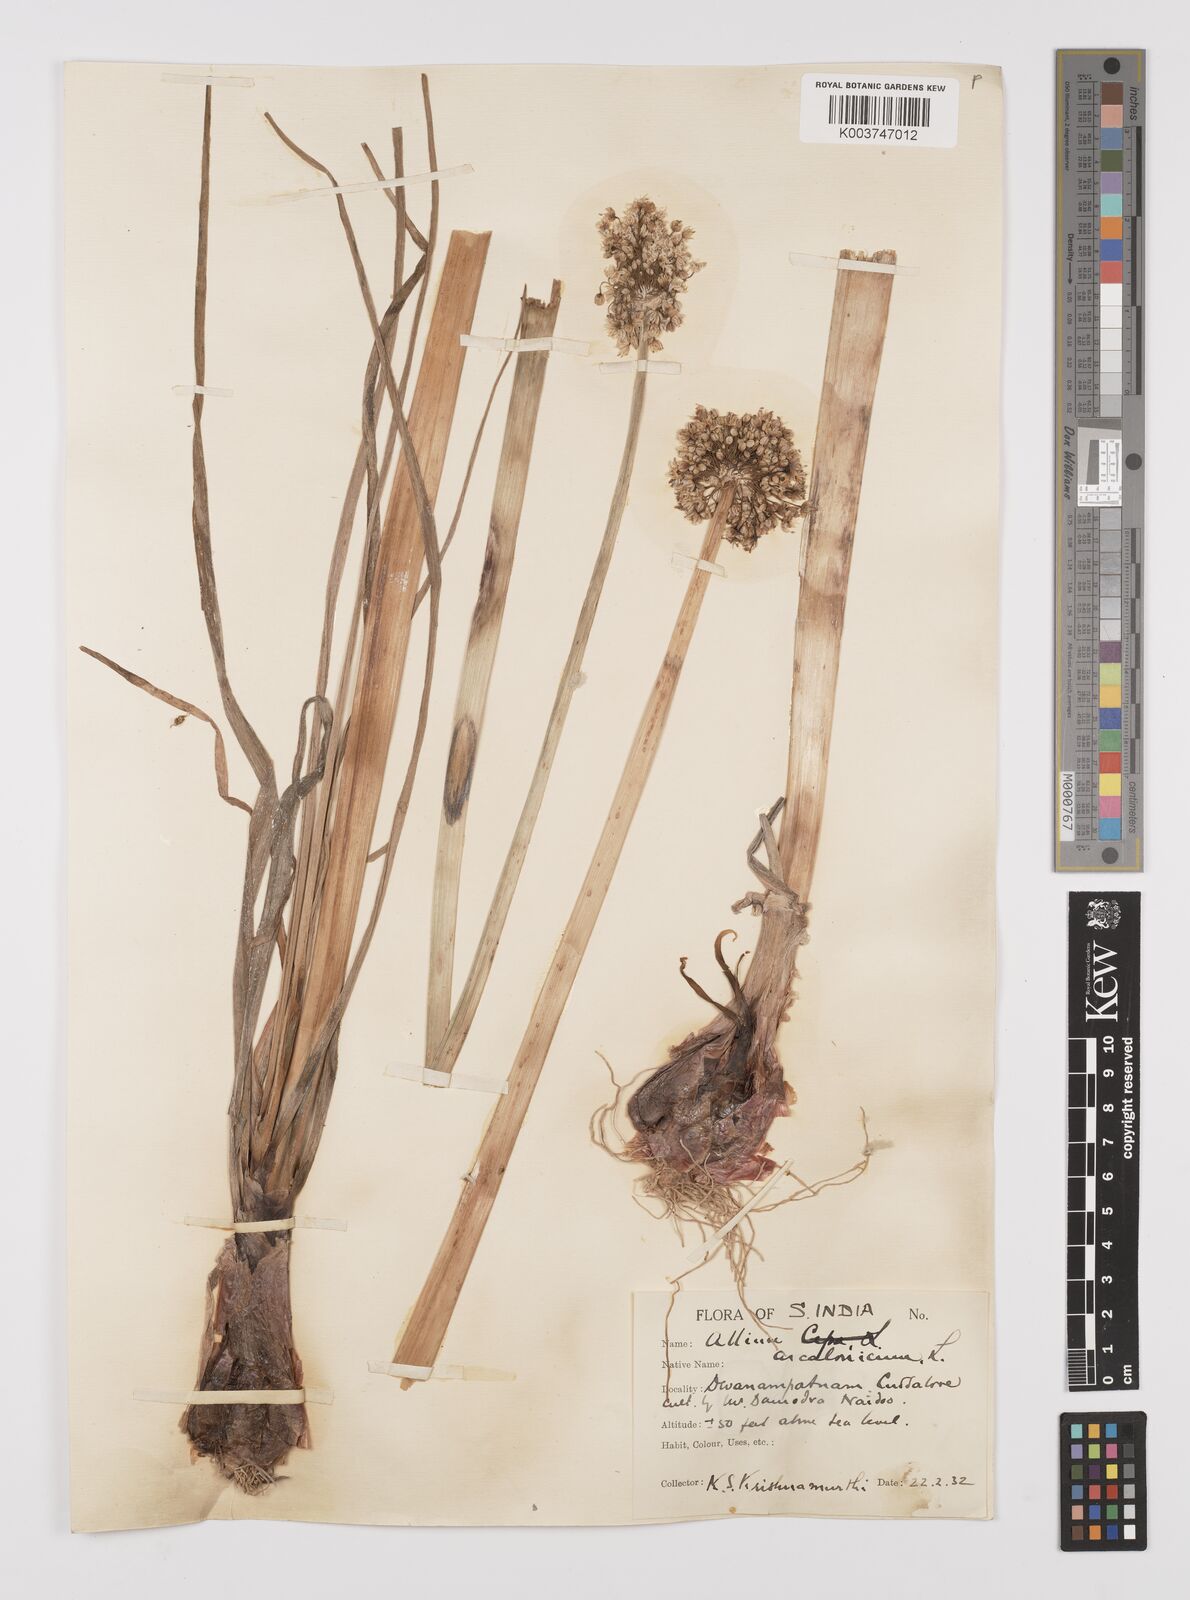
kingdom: Plantae
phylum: Tracheophyta
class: Liliopsida
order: Asparagales
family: Amaryllidaceae
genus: Allium
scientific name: Allium ascalonicum
